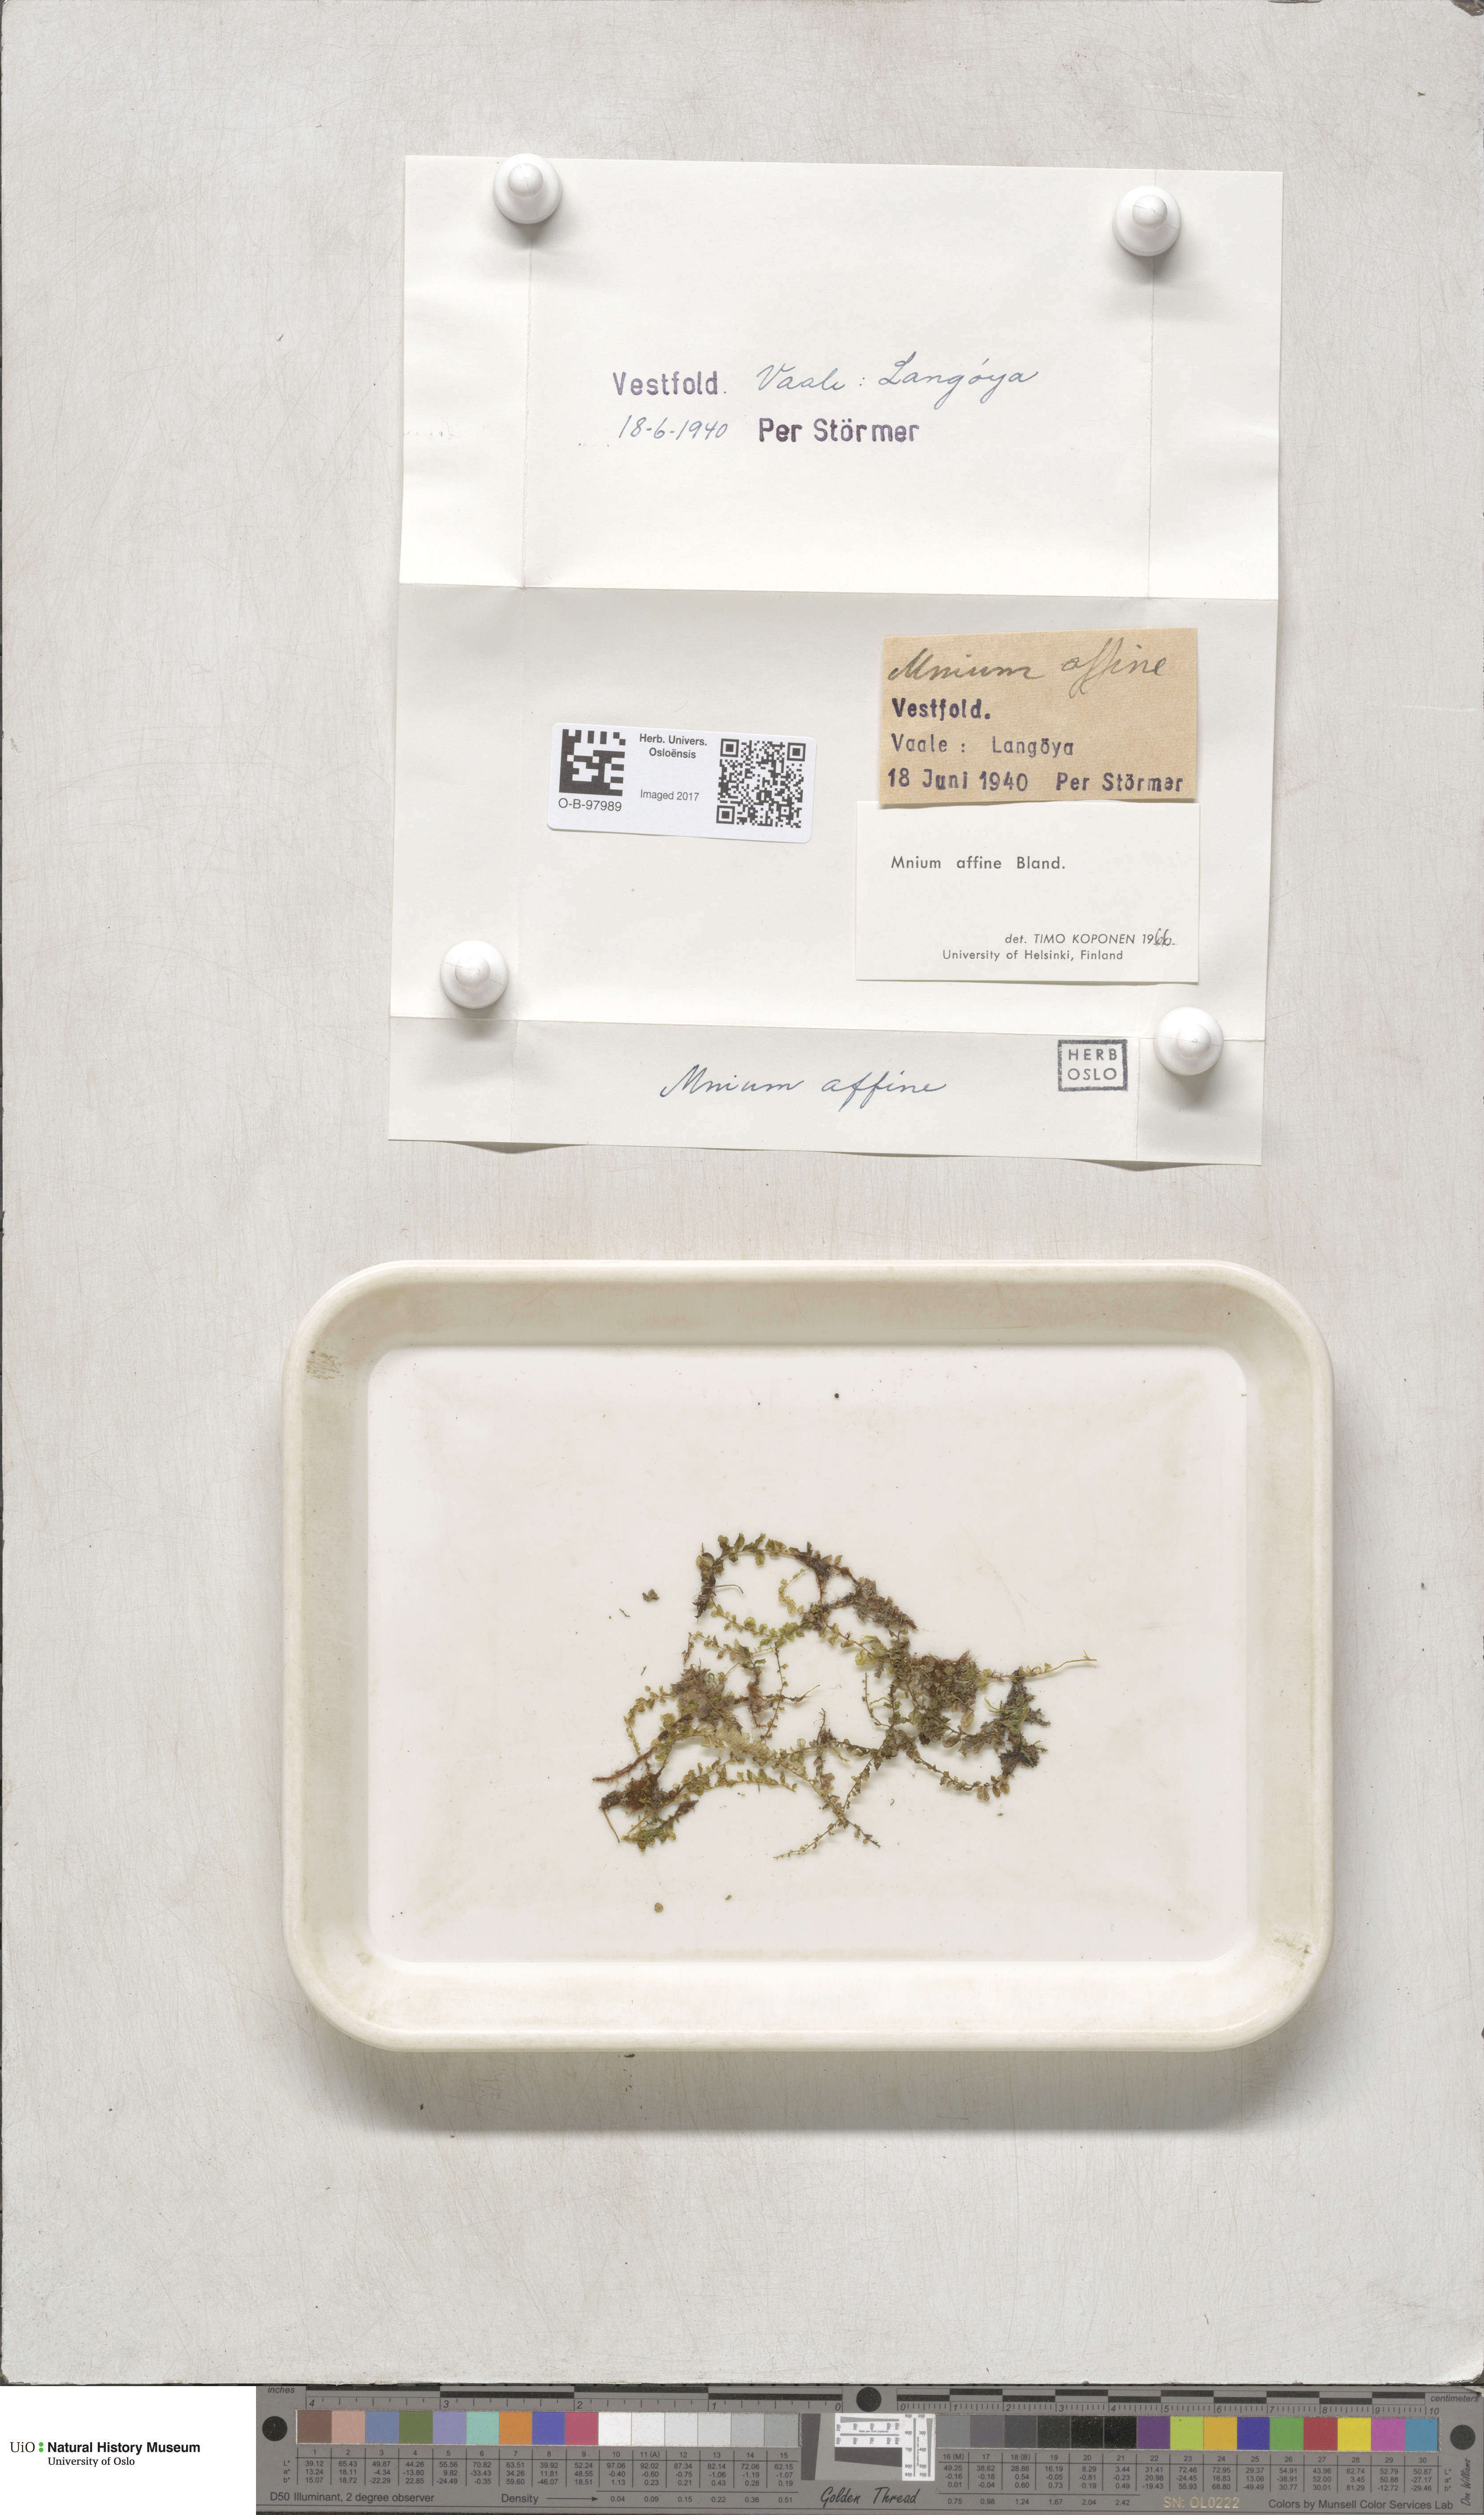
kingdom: Plantae
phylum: Bryophyta
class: Bryopsida
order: Bryales
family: Mniaceae
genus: Plagiomnium
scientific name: Plagiomnium affine
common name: Many-fruited thyme-moss
